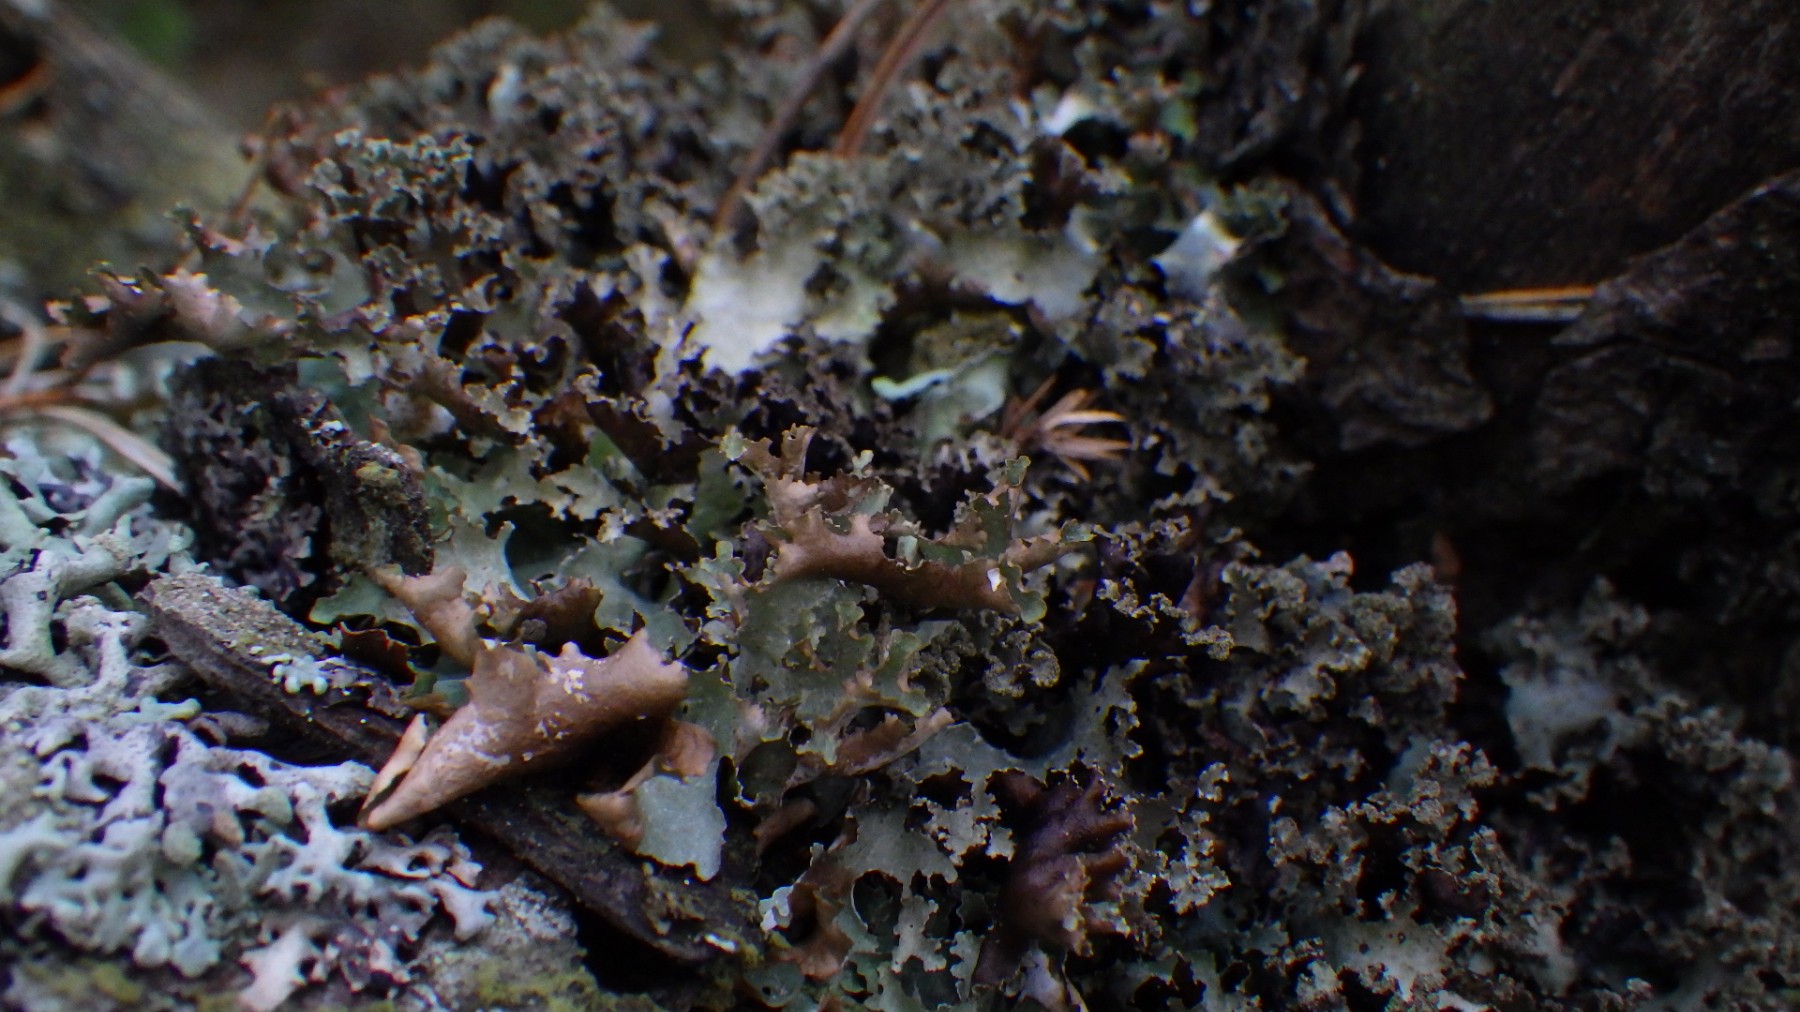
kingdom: Fungi
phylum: Ascomycota
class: Lecanoromycetes
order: Lecanorales
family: Parmeliaceae
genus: Platismatia
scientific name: Platismatia glauca
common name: blågrå papirlav
